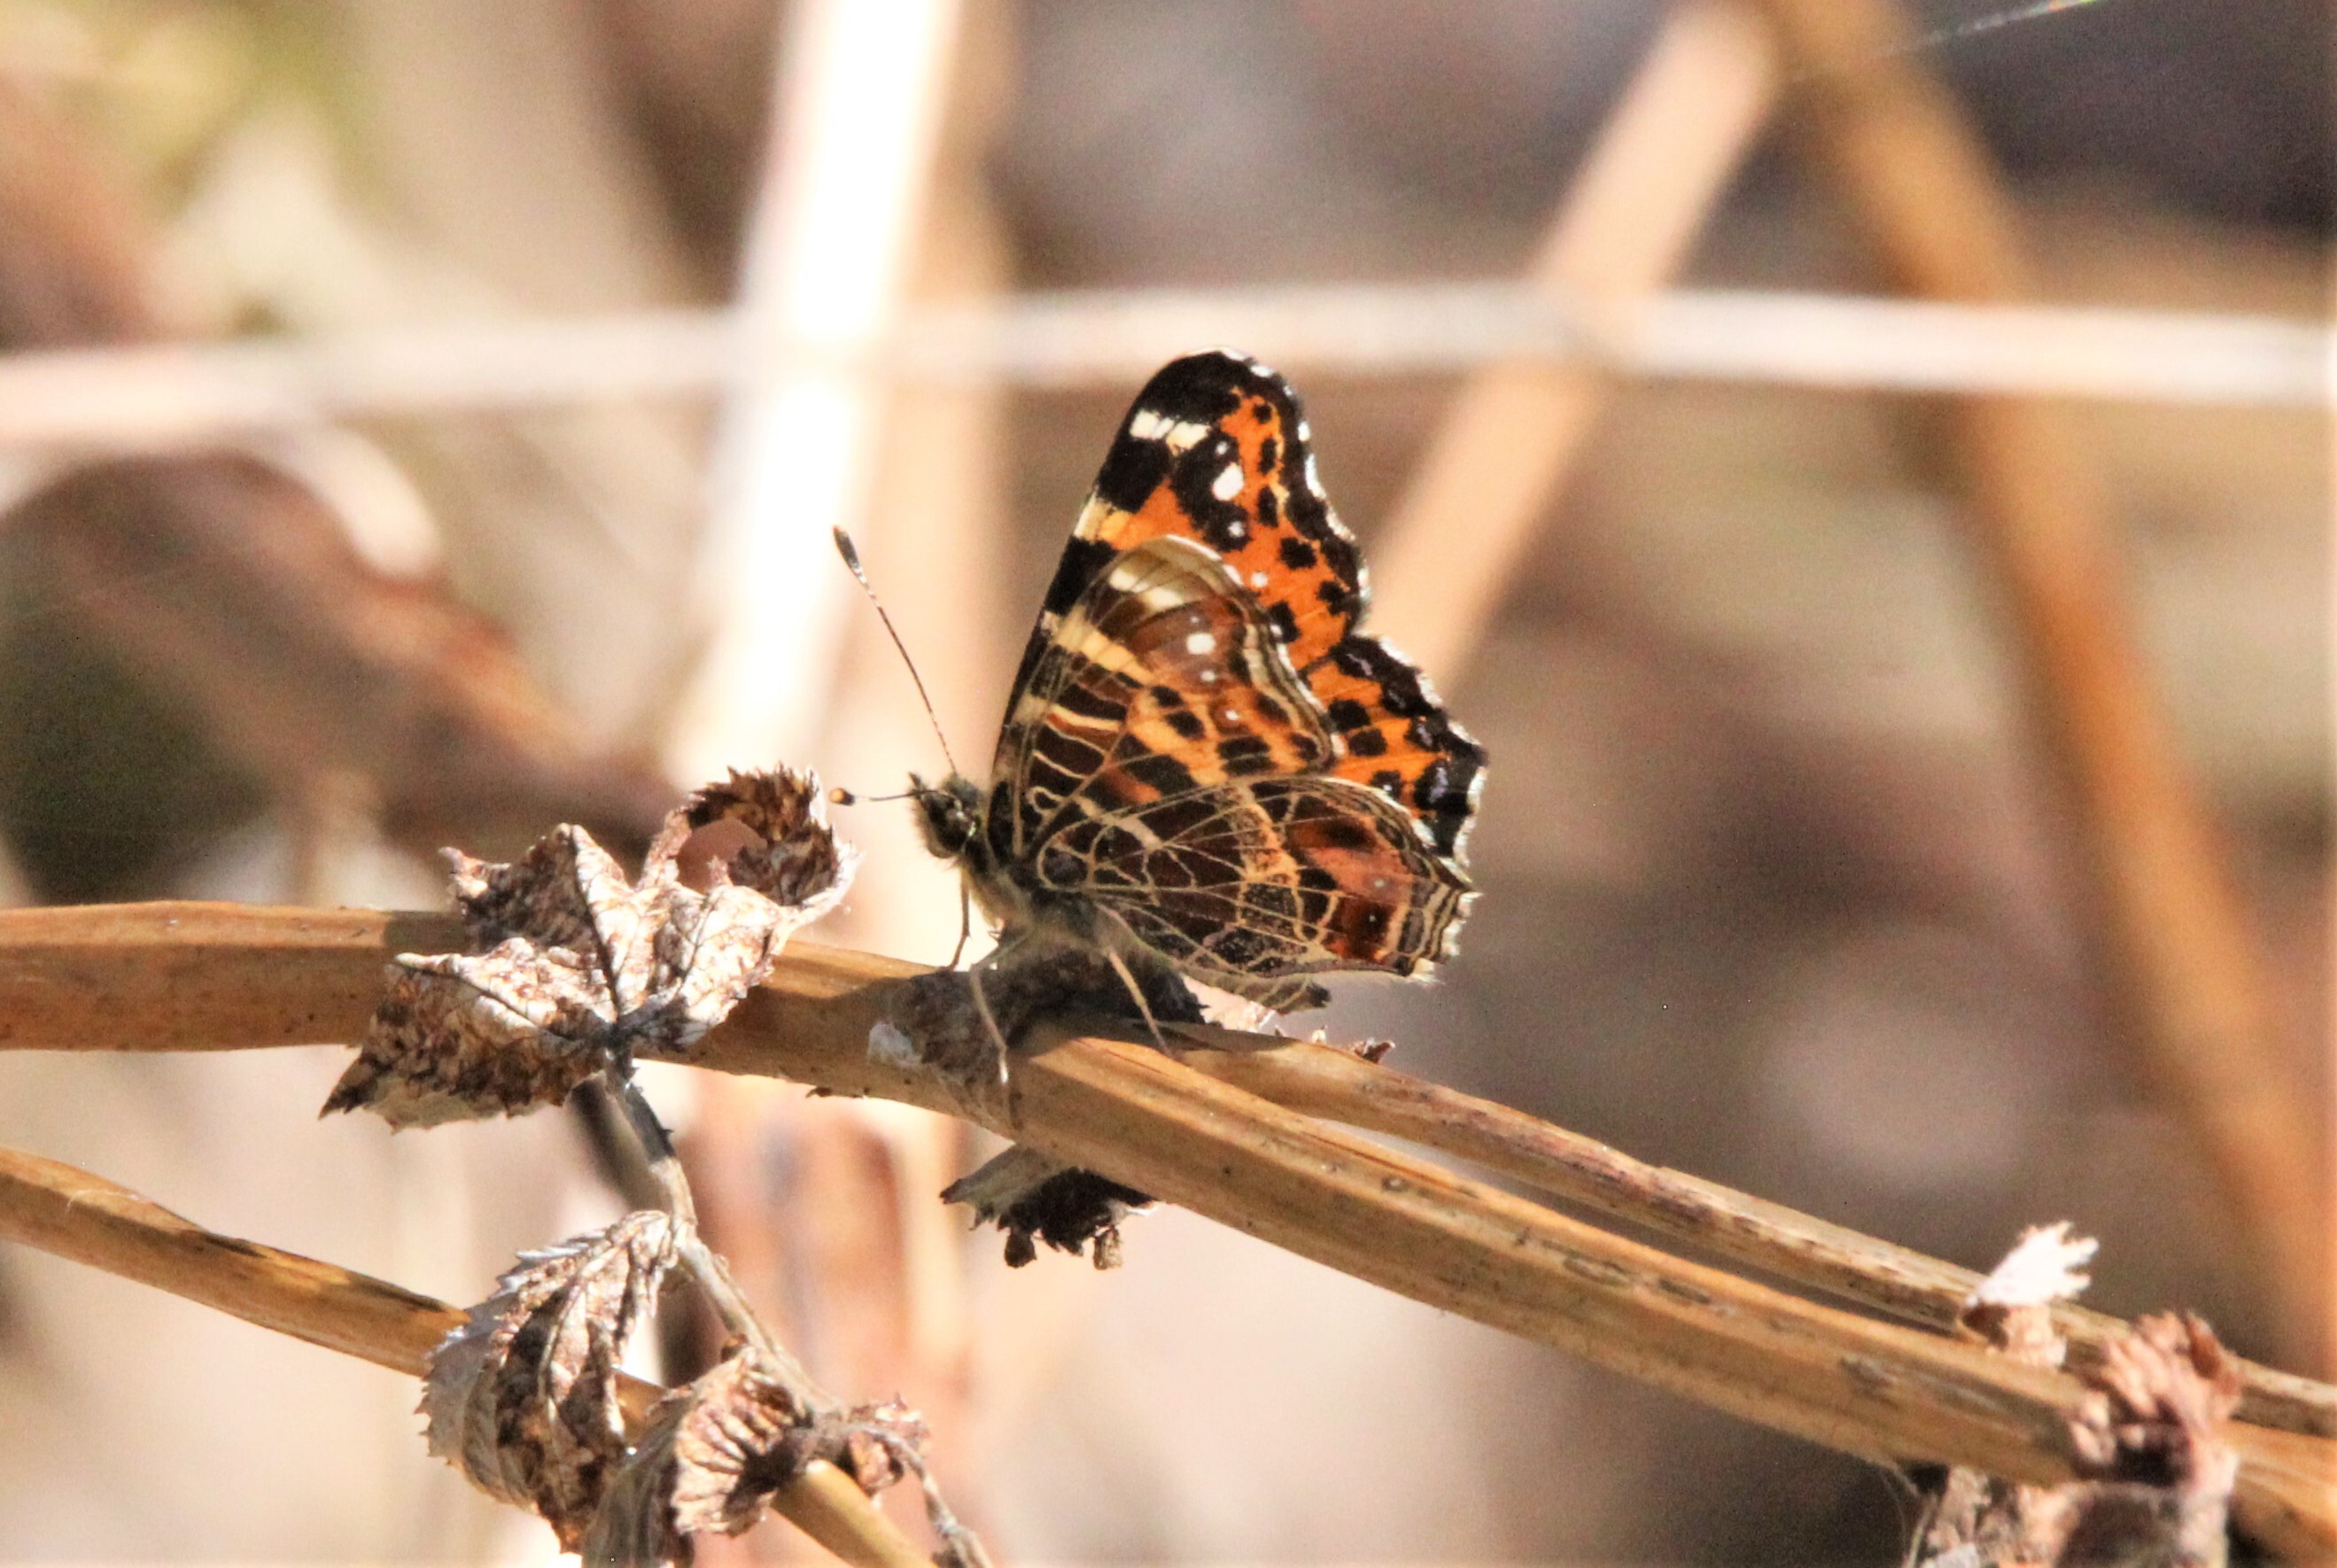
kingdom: Animalia
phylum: Arthropoda
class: Insecta
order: Lepidoptera
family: Nymphalidae
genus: Araschnia
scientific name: Araschnia levana
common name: Map butterfly
